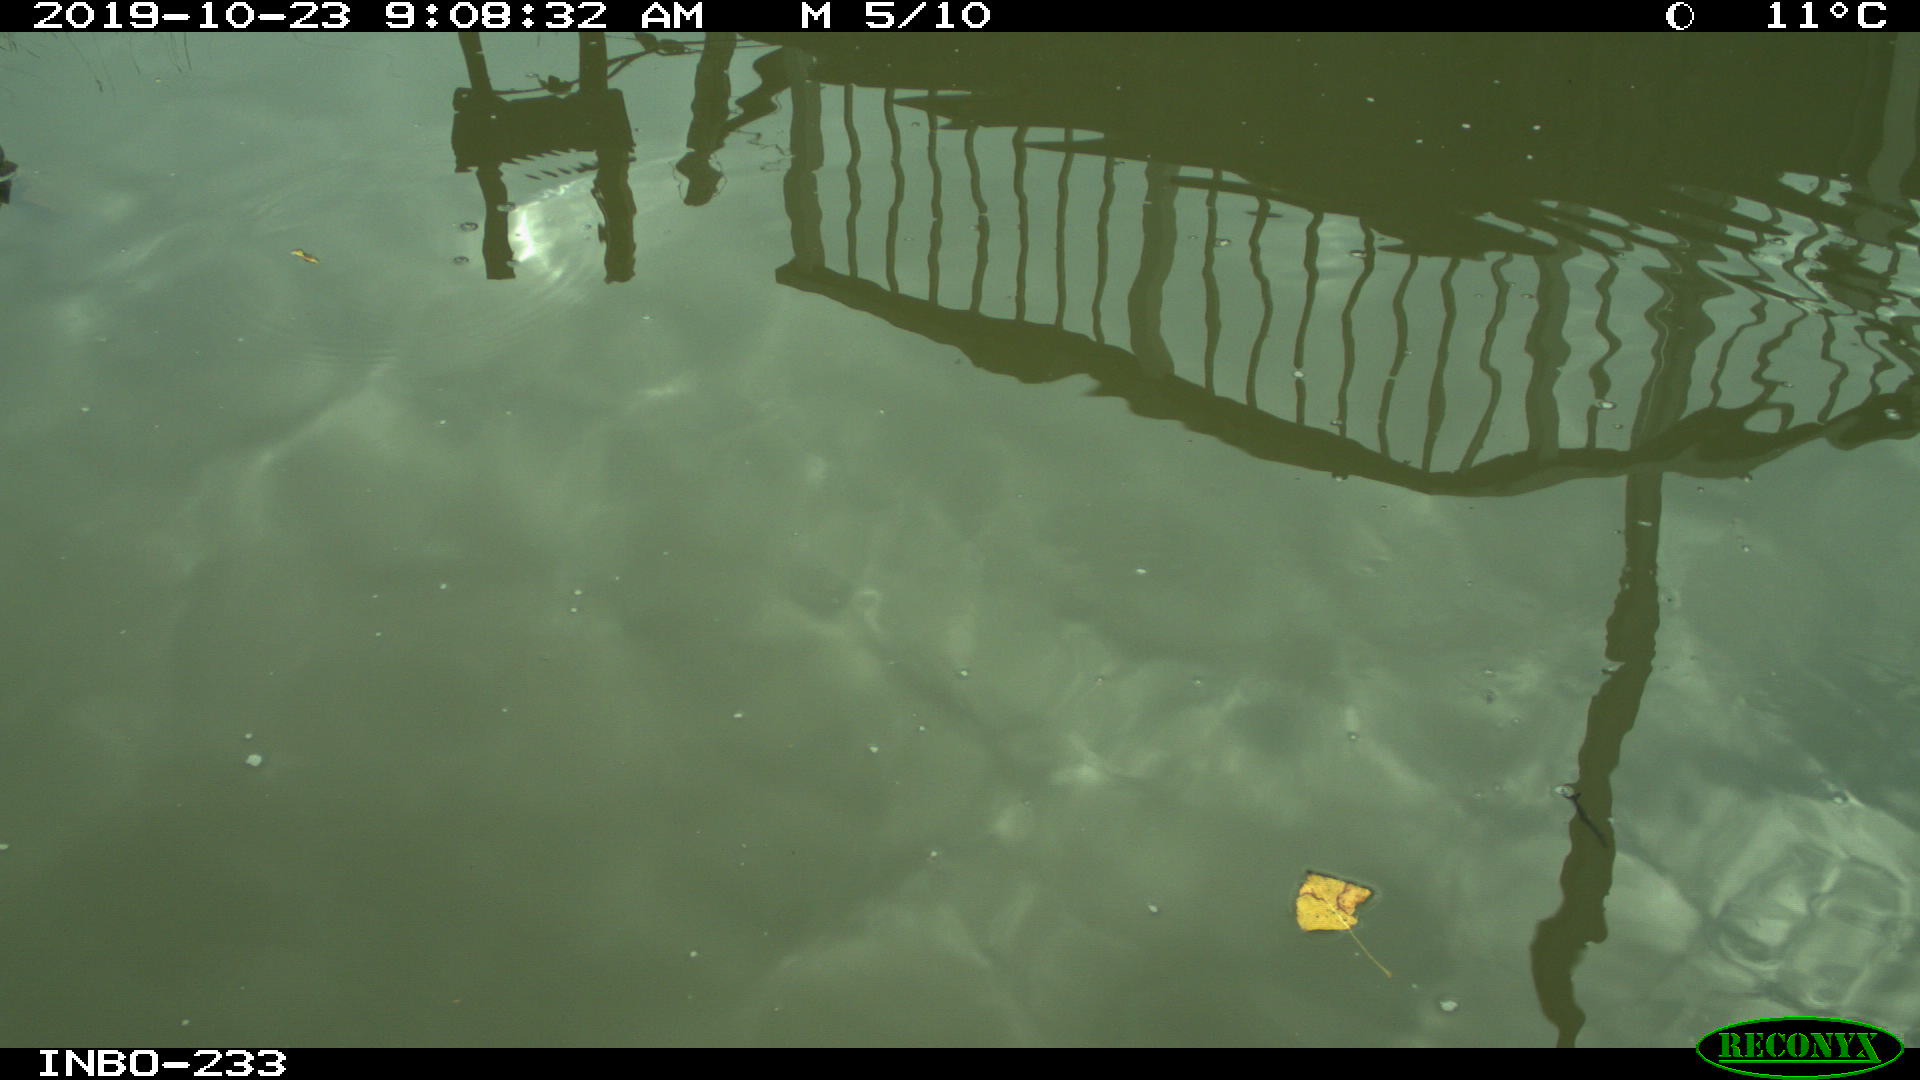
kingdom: Animalia
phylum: Chordata
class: Aves
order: Anseriformes
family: Anatidae
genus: Anas
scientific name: Anas platyrhynchos
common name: Mallard
